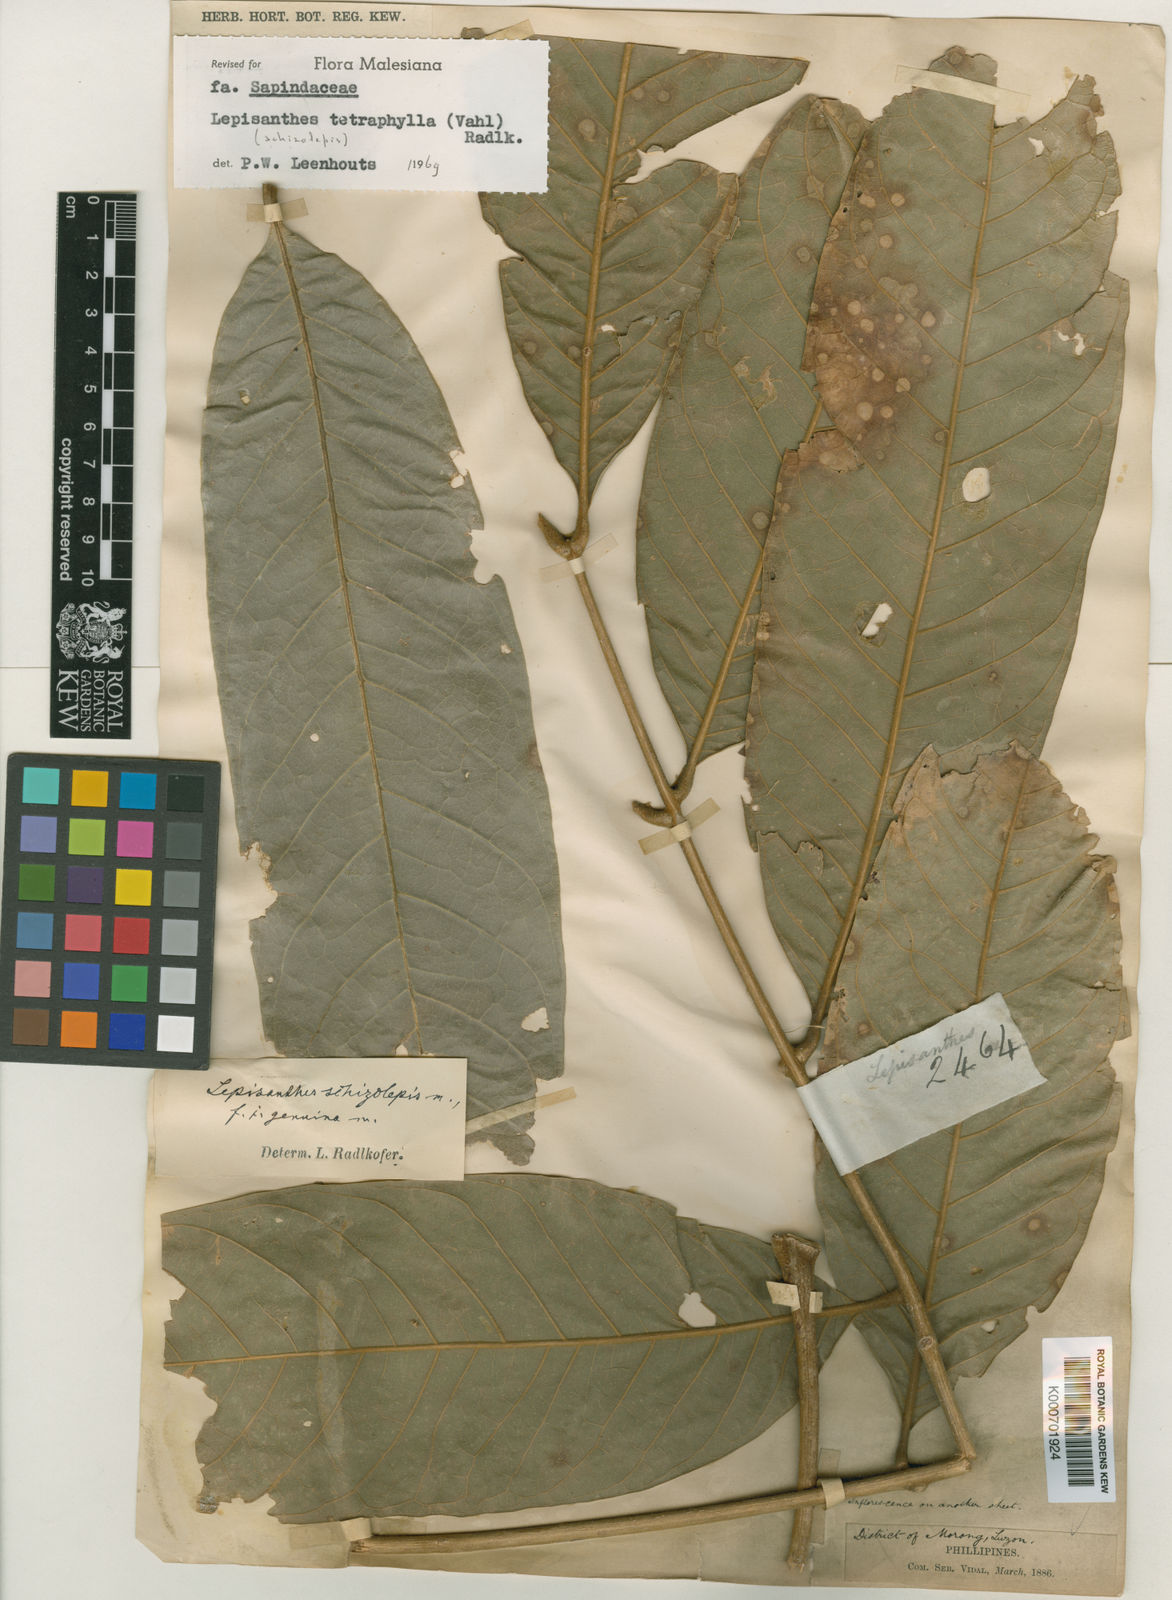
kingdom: Plantae
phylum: Tracheophyta
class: Magnoliopsida
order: Sapindales
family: Sapindaceae
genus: Lepisanthes
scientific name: Lepisanthes tetraphylla
